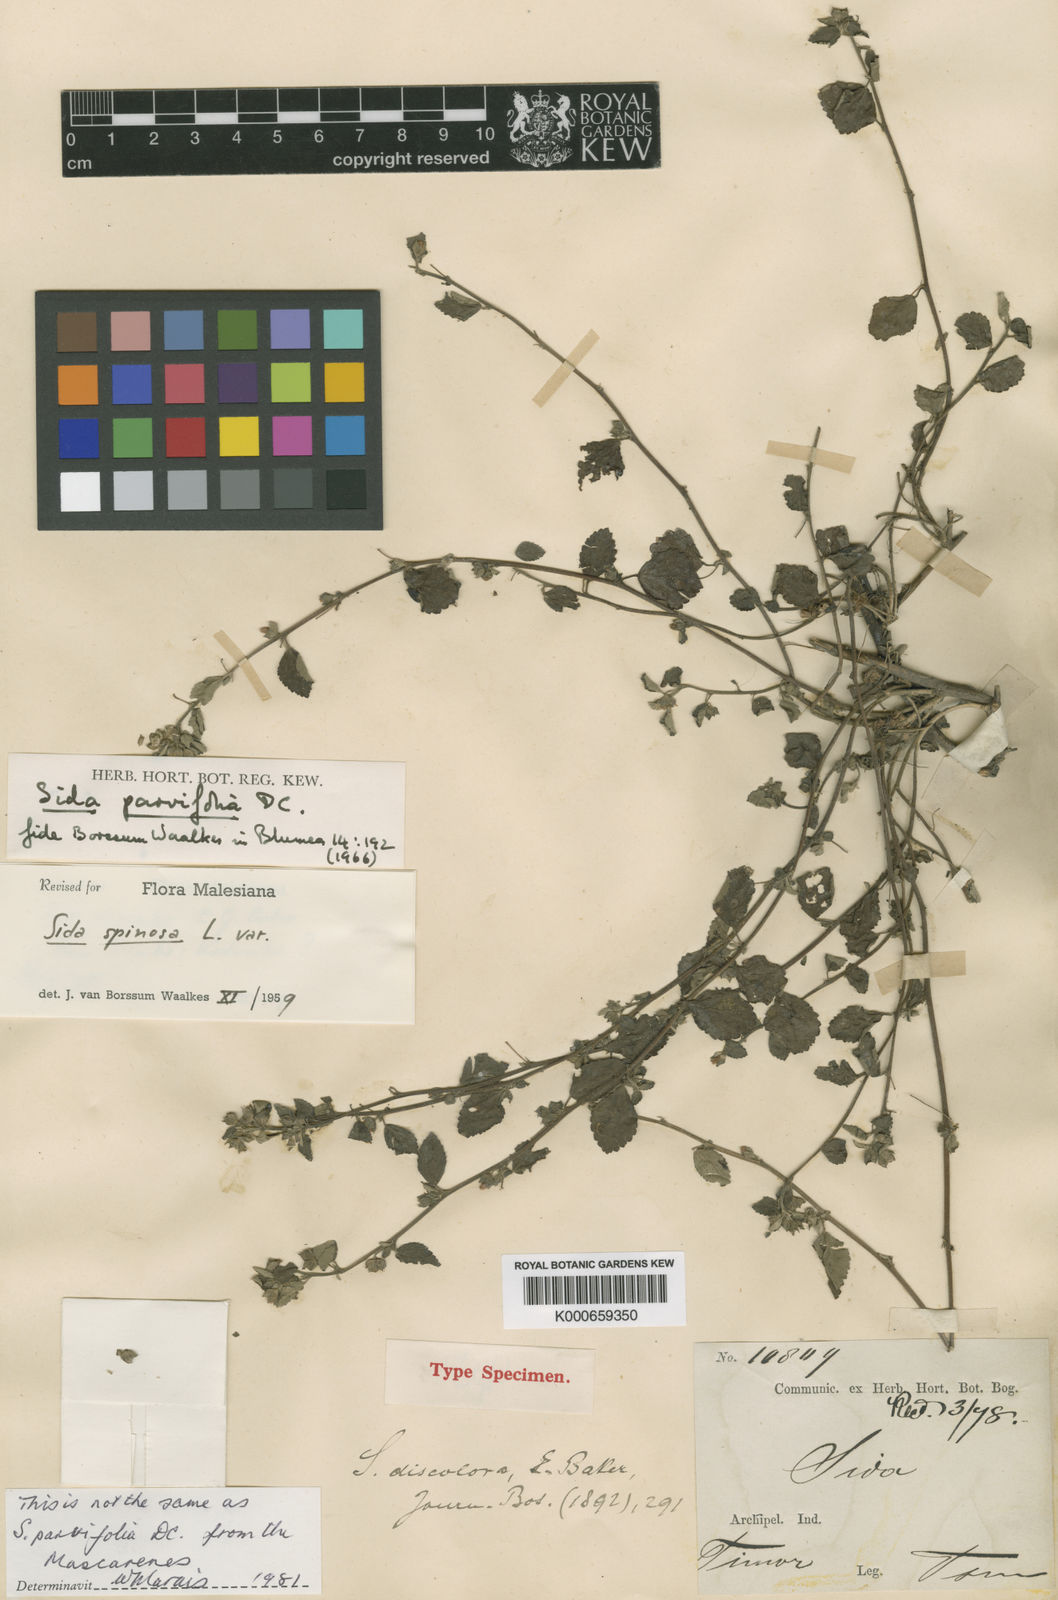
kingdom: Plantae
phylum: Tracheophyta
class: Magnoliopsida
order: Malvales
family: Malvaceae
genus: Sida
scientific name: Sida pusilla
